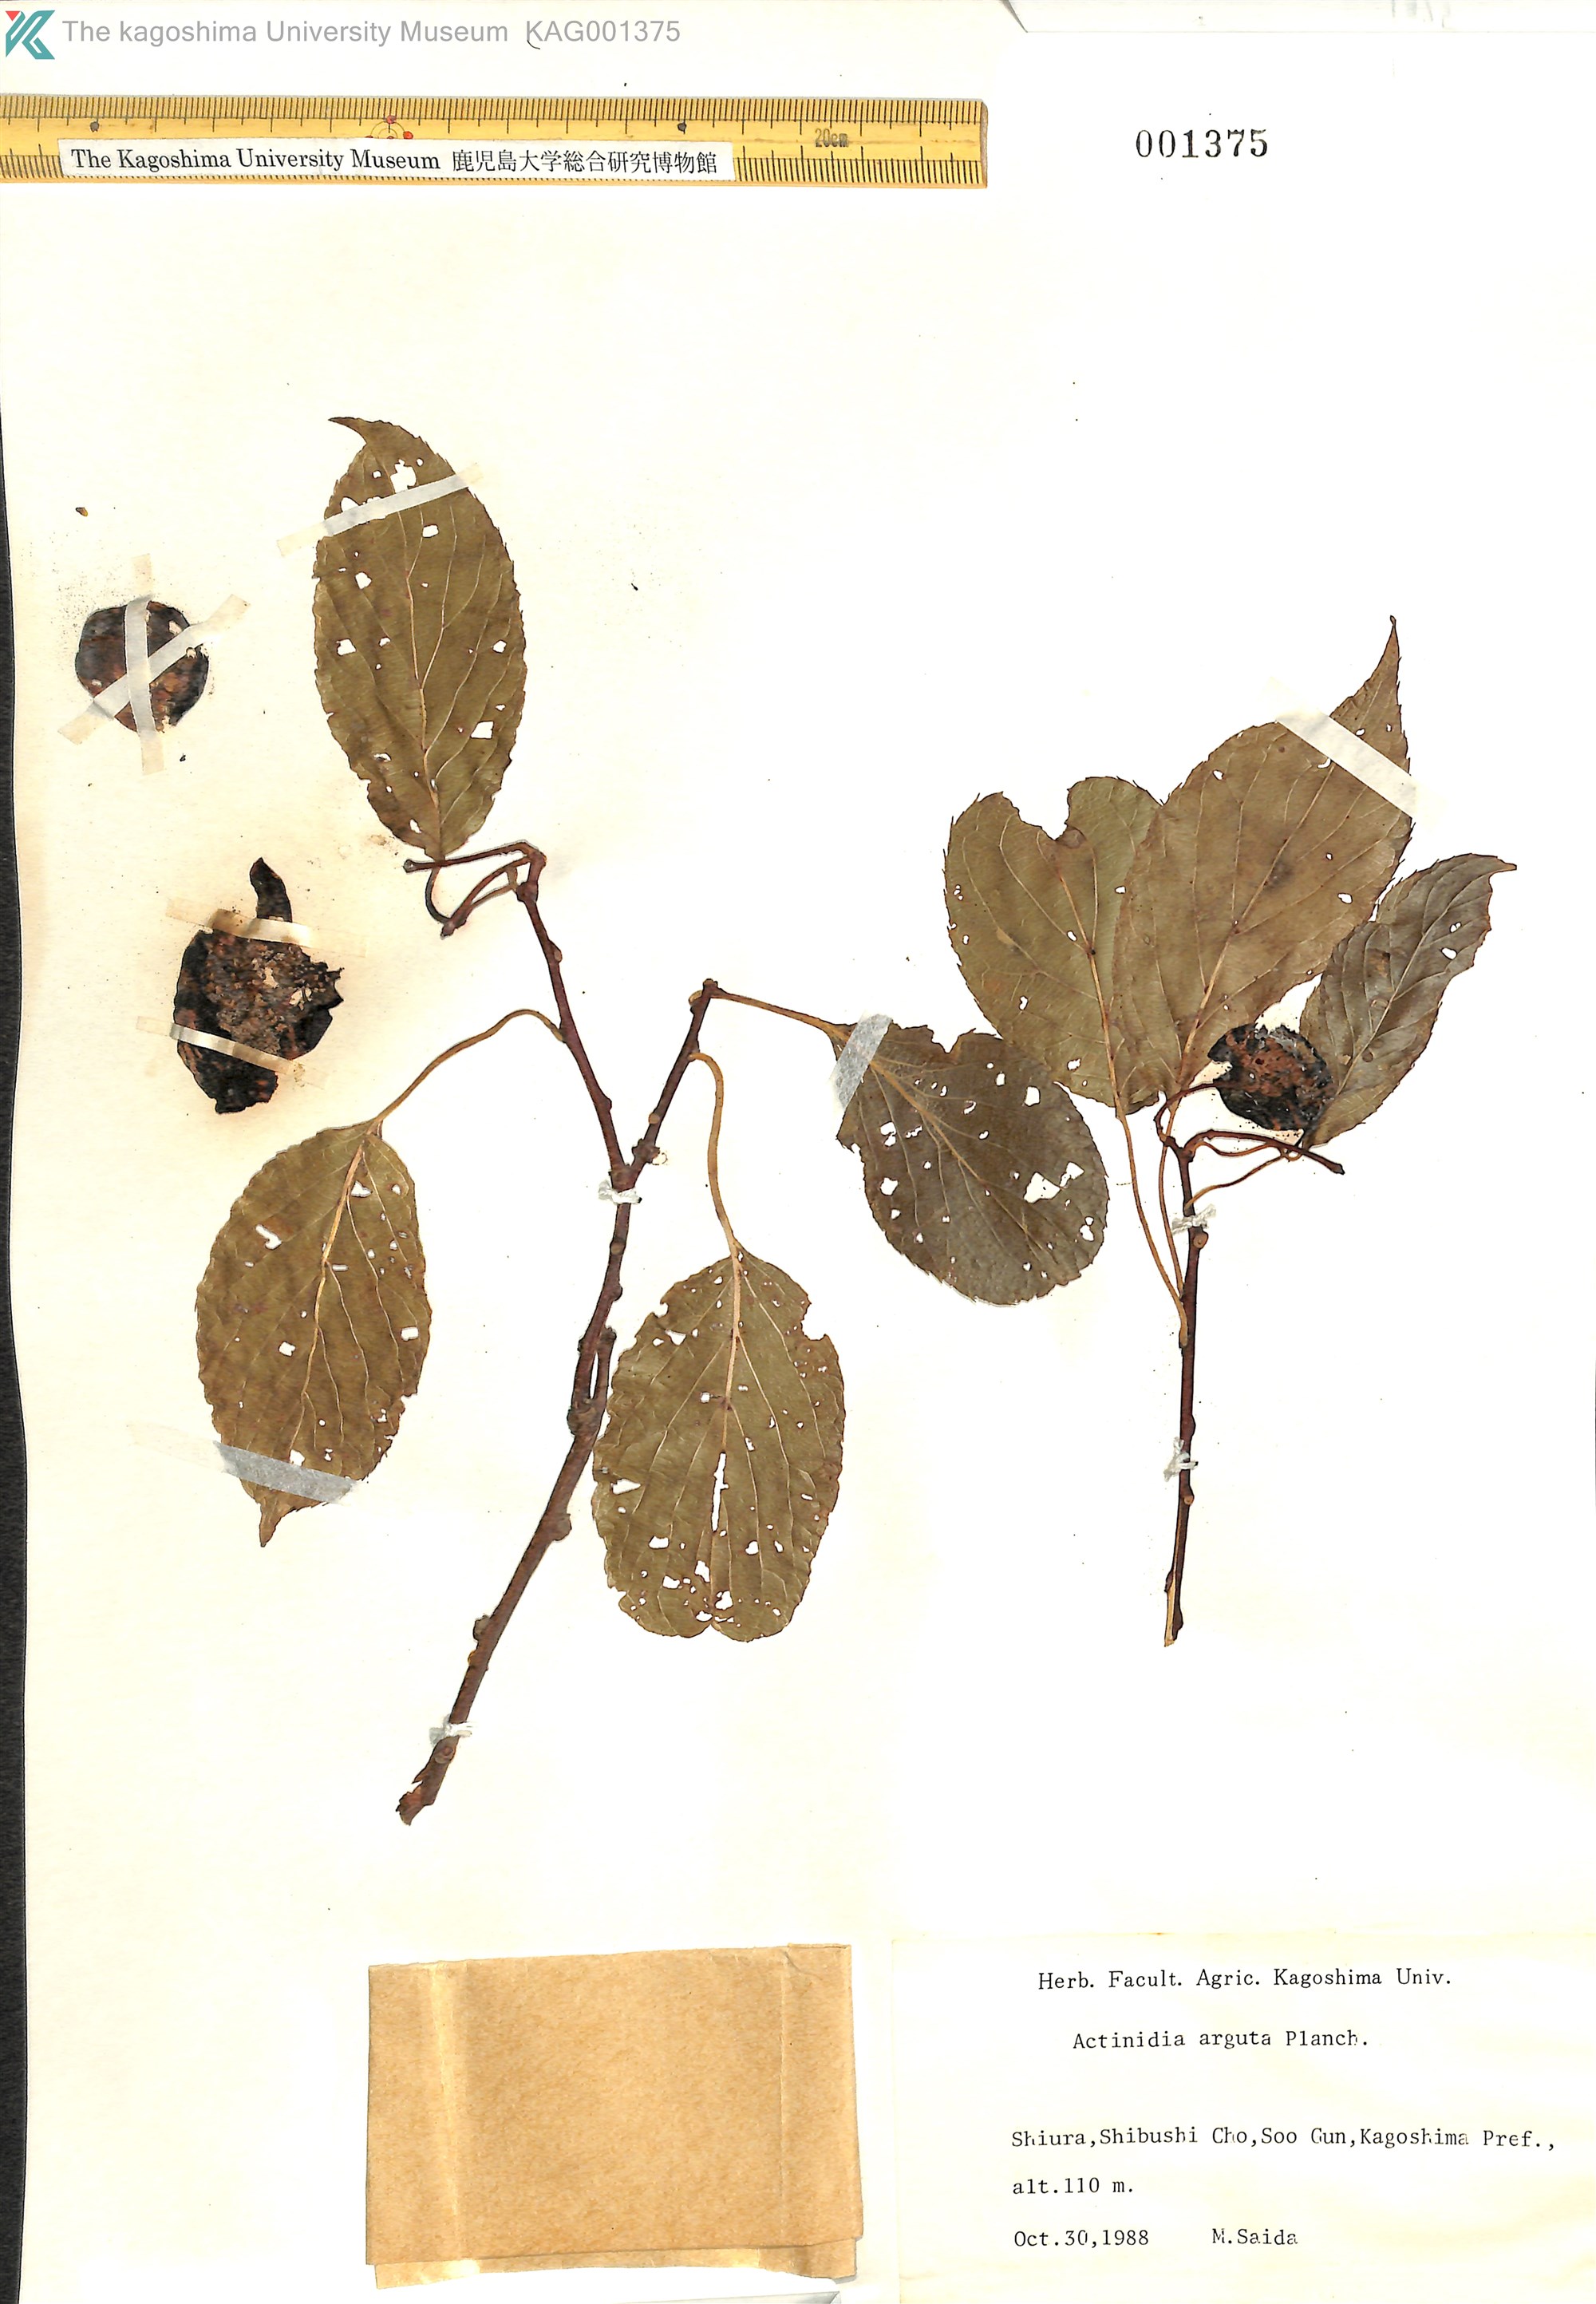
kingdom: Plantae
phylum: Tracheophyta
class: Magnoliopsida
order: Ericales
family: Actinidiaceae
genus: Actinidia
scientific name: Actinidia arguta
